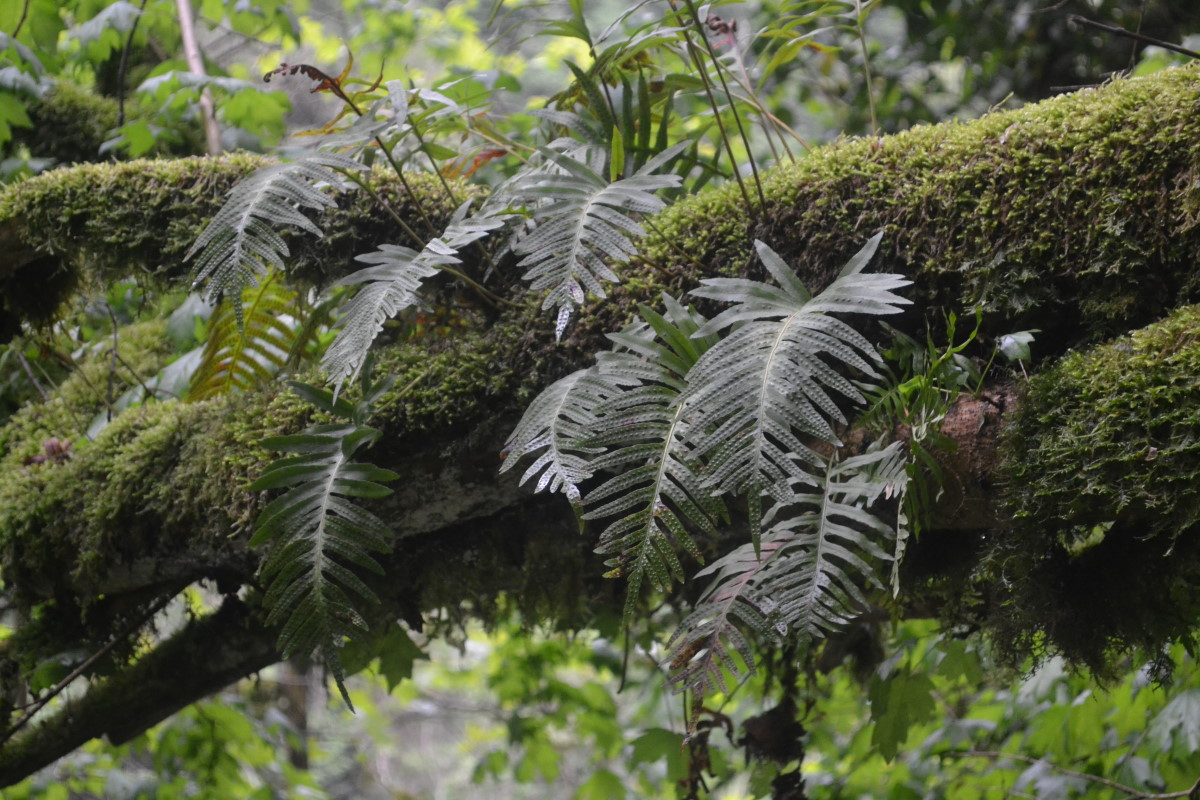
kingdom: Plantae
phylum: Tracheophyta
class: Polypodiopsida
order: Polypodiales
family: Polypodiaceae
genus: Polypodium
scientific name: Polypodium vulgare
